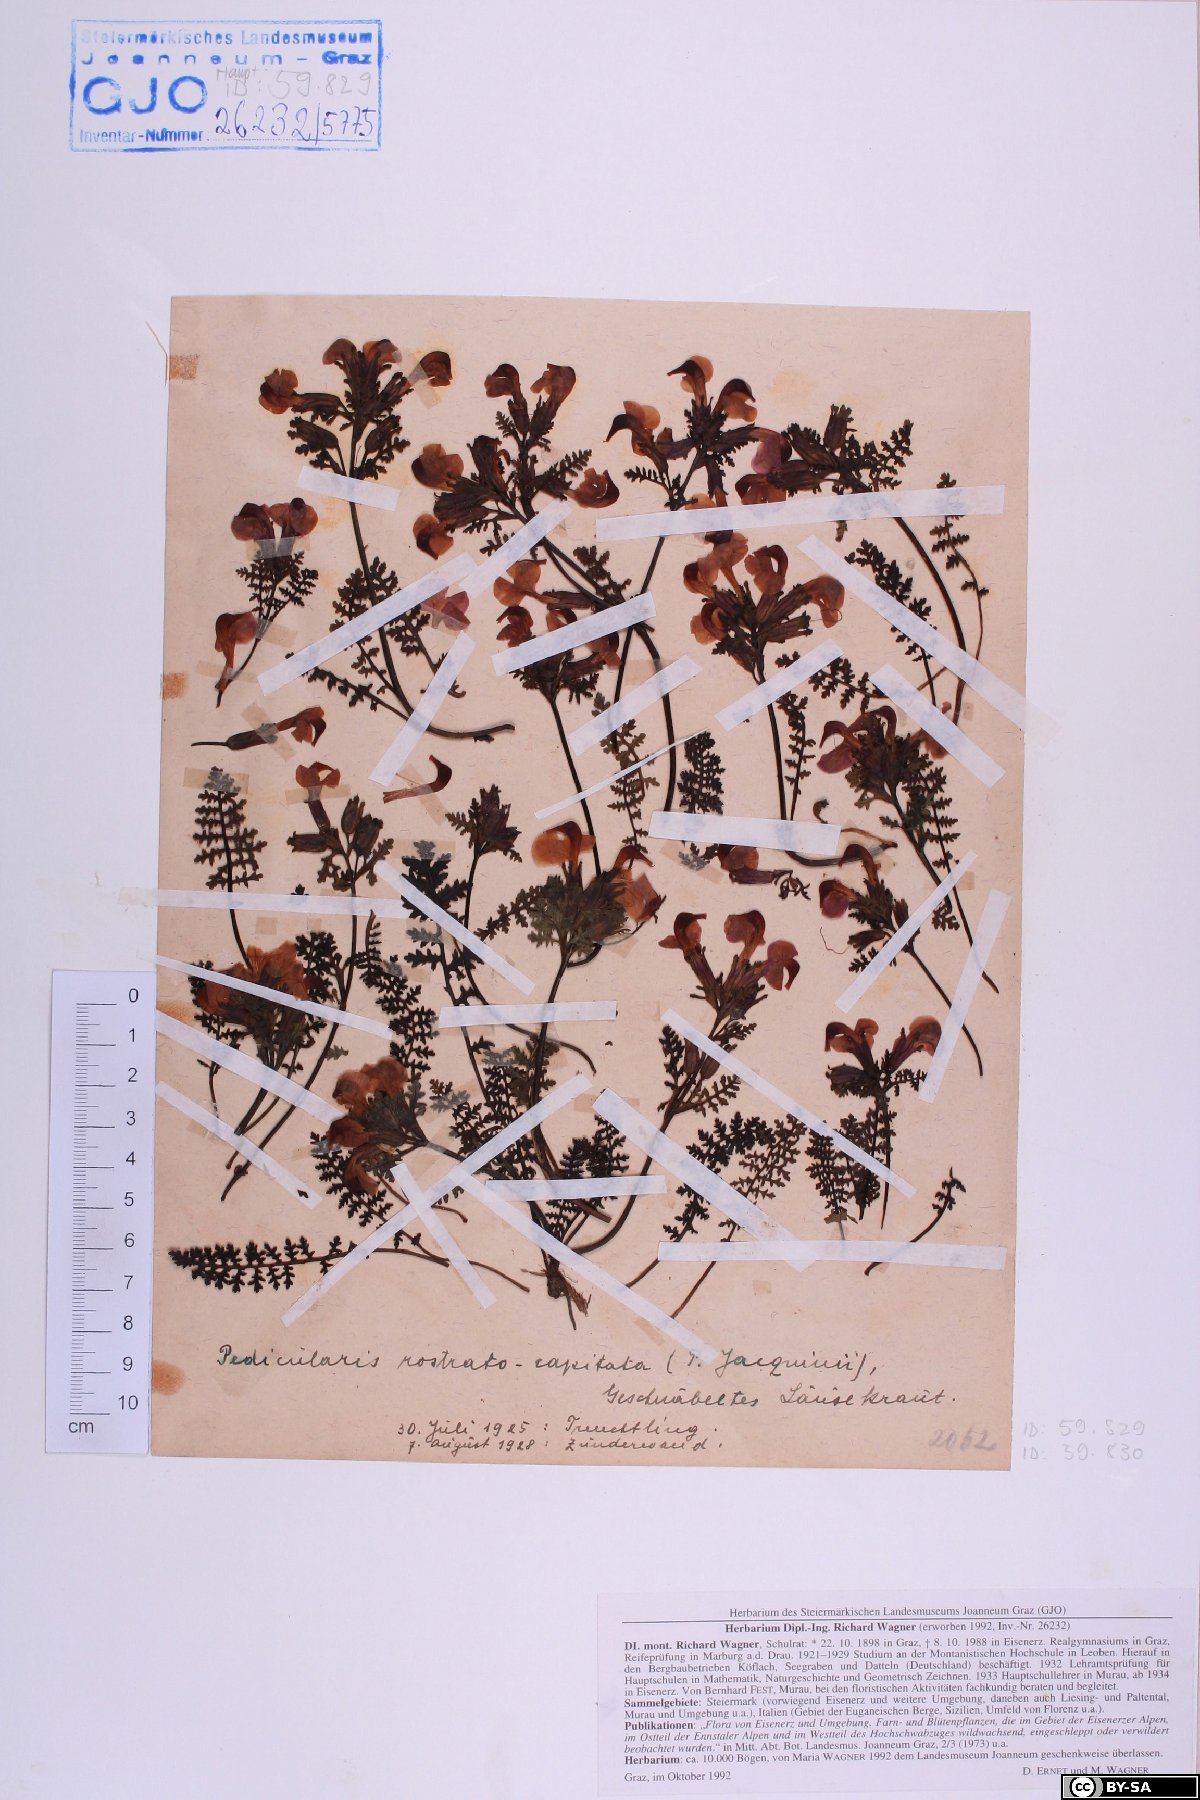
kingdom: Plantae
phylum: Tracheophyta
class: Magnoliopsida
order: Lamiales
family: Orobanchaceae
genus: Pedicularis
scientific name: Pedicularis rostratocapitata
